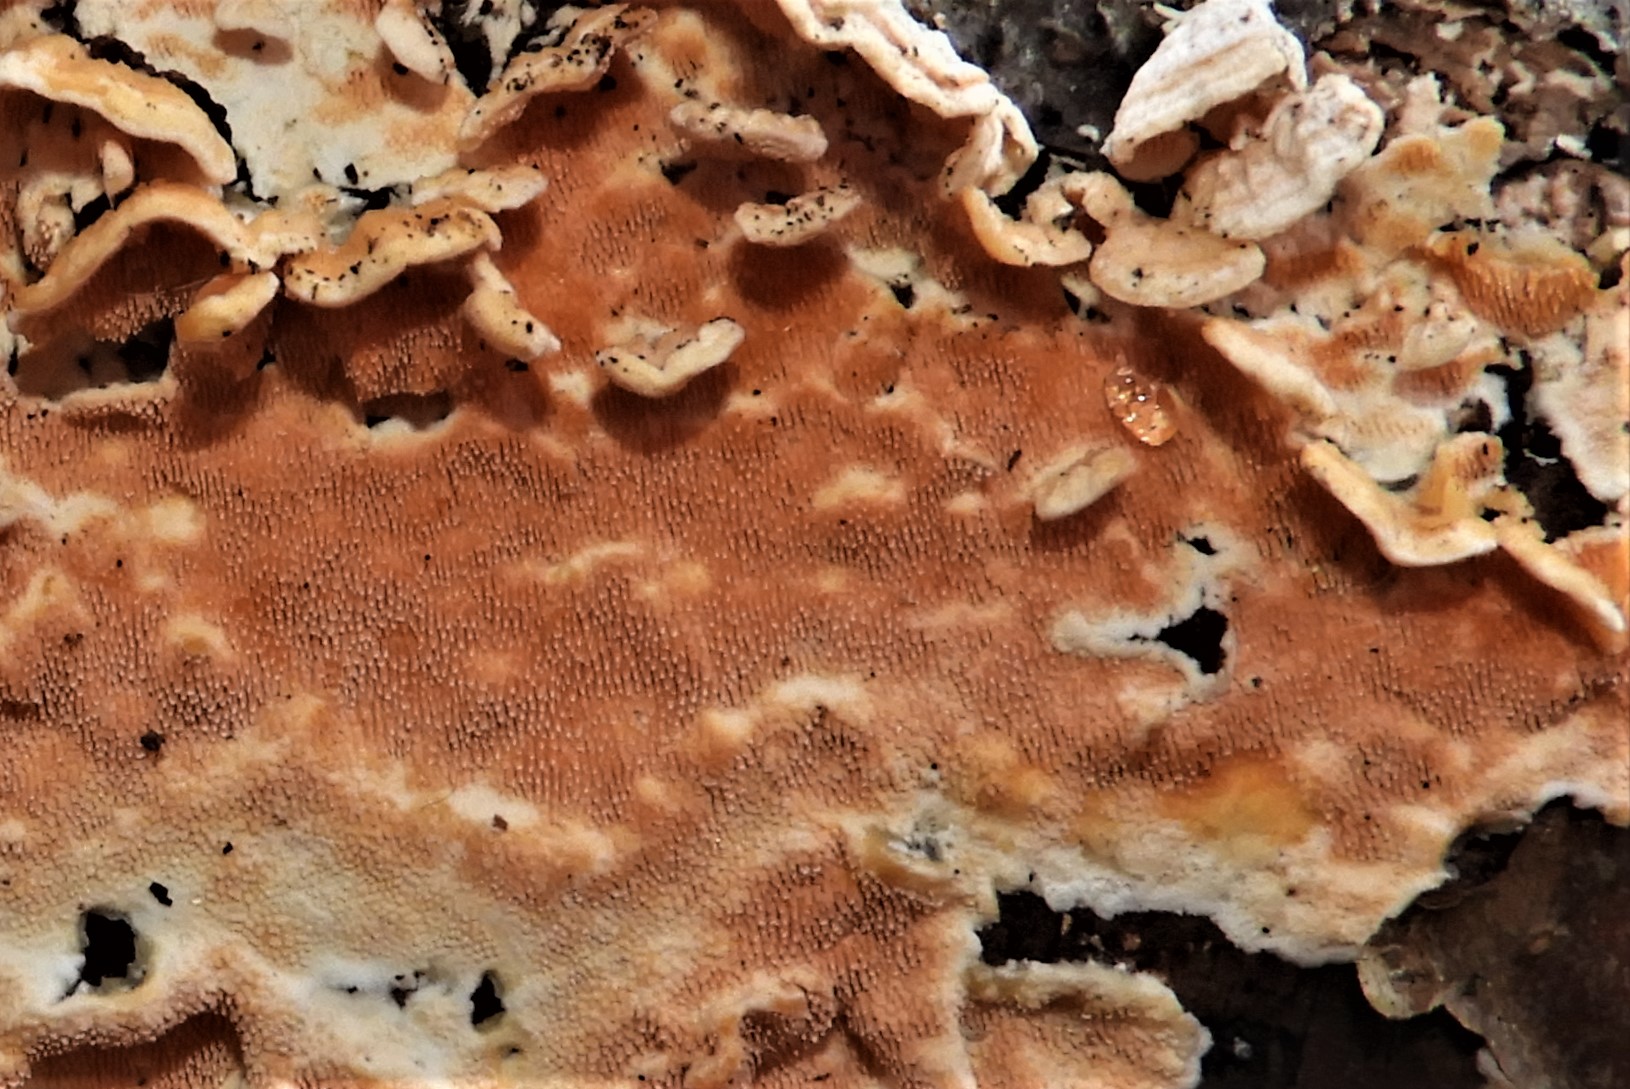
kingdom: Fungi
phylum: Basidiomycota
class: Agaricomycetes
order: Polyporales
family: Steccherinaceae
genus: Steccherinum
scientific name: Steccherinum ochraceum
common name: almindelig skønpig
